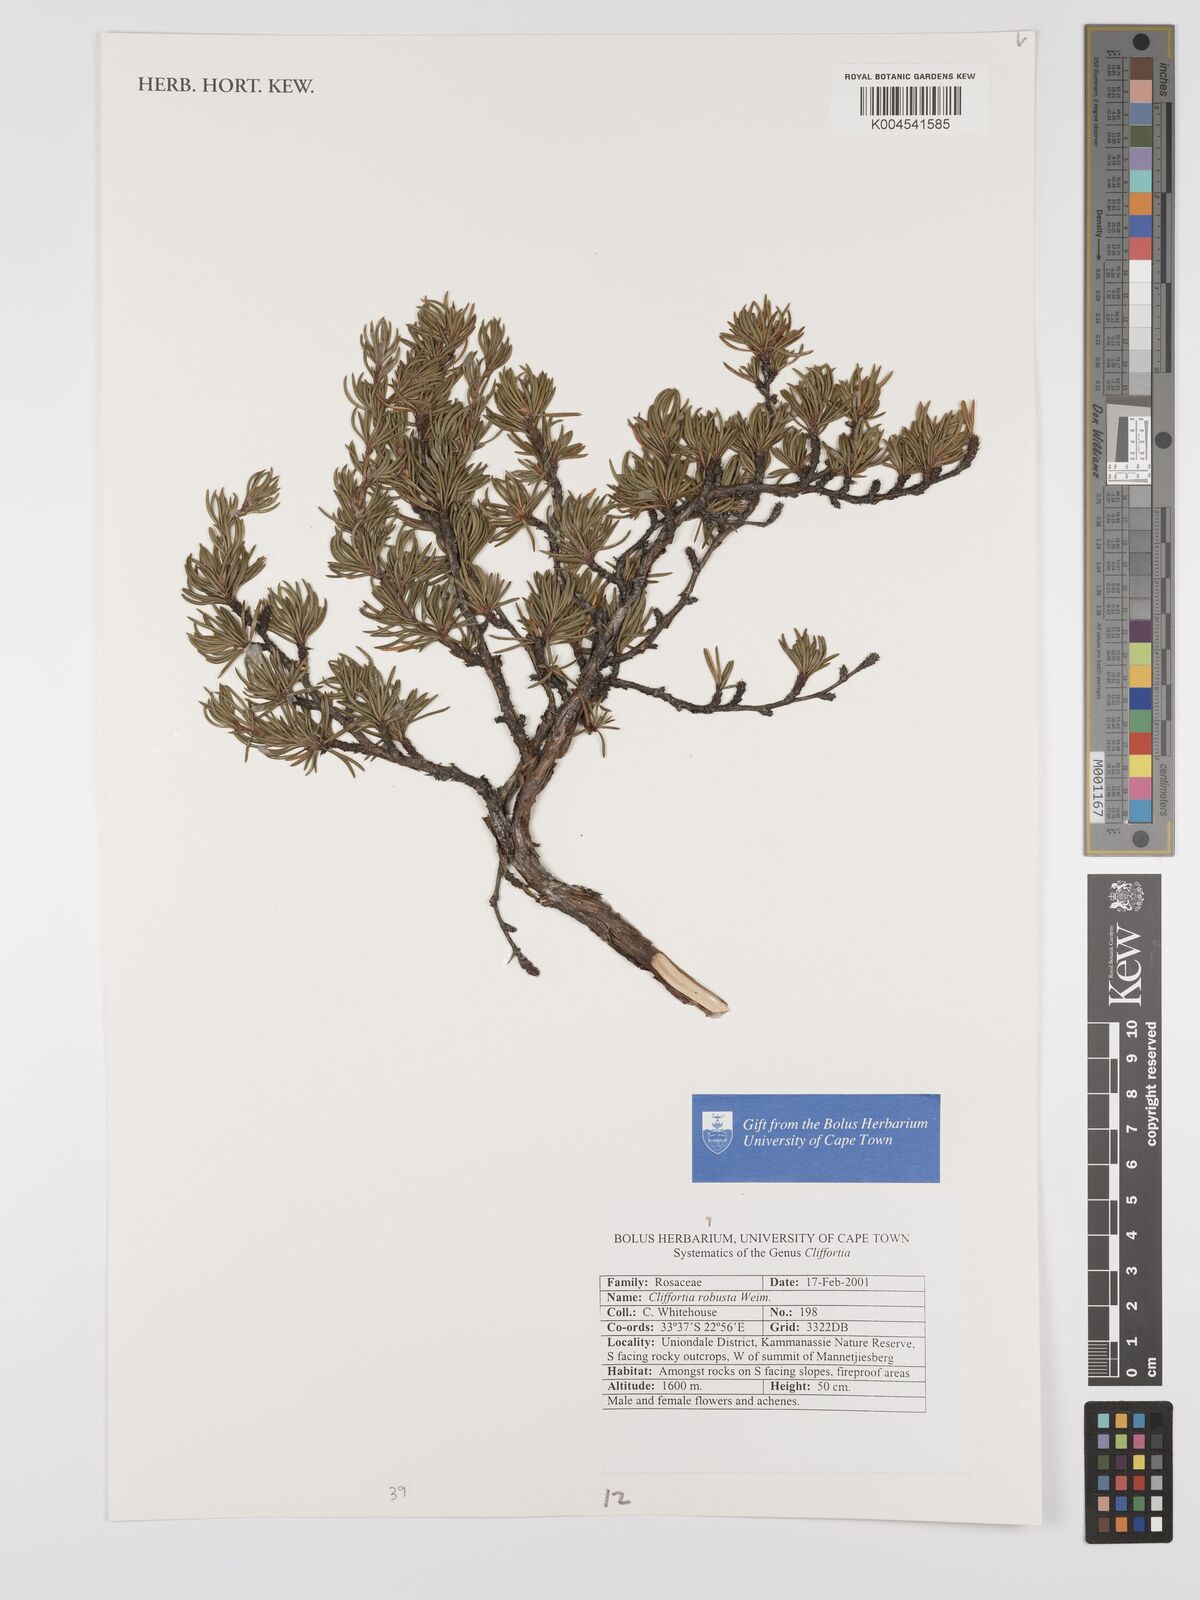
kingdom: Plantae
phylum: Tracheophyta
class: Magnoliopsida
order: Rosales
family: Rosaceae
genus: Cliffortia
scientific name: Cliffortia robusta
